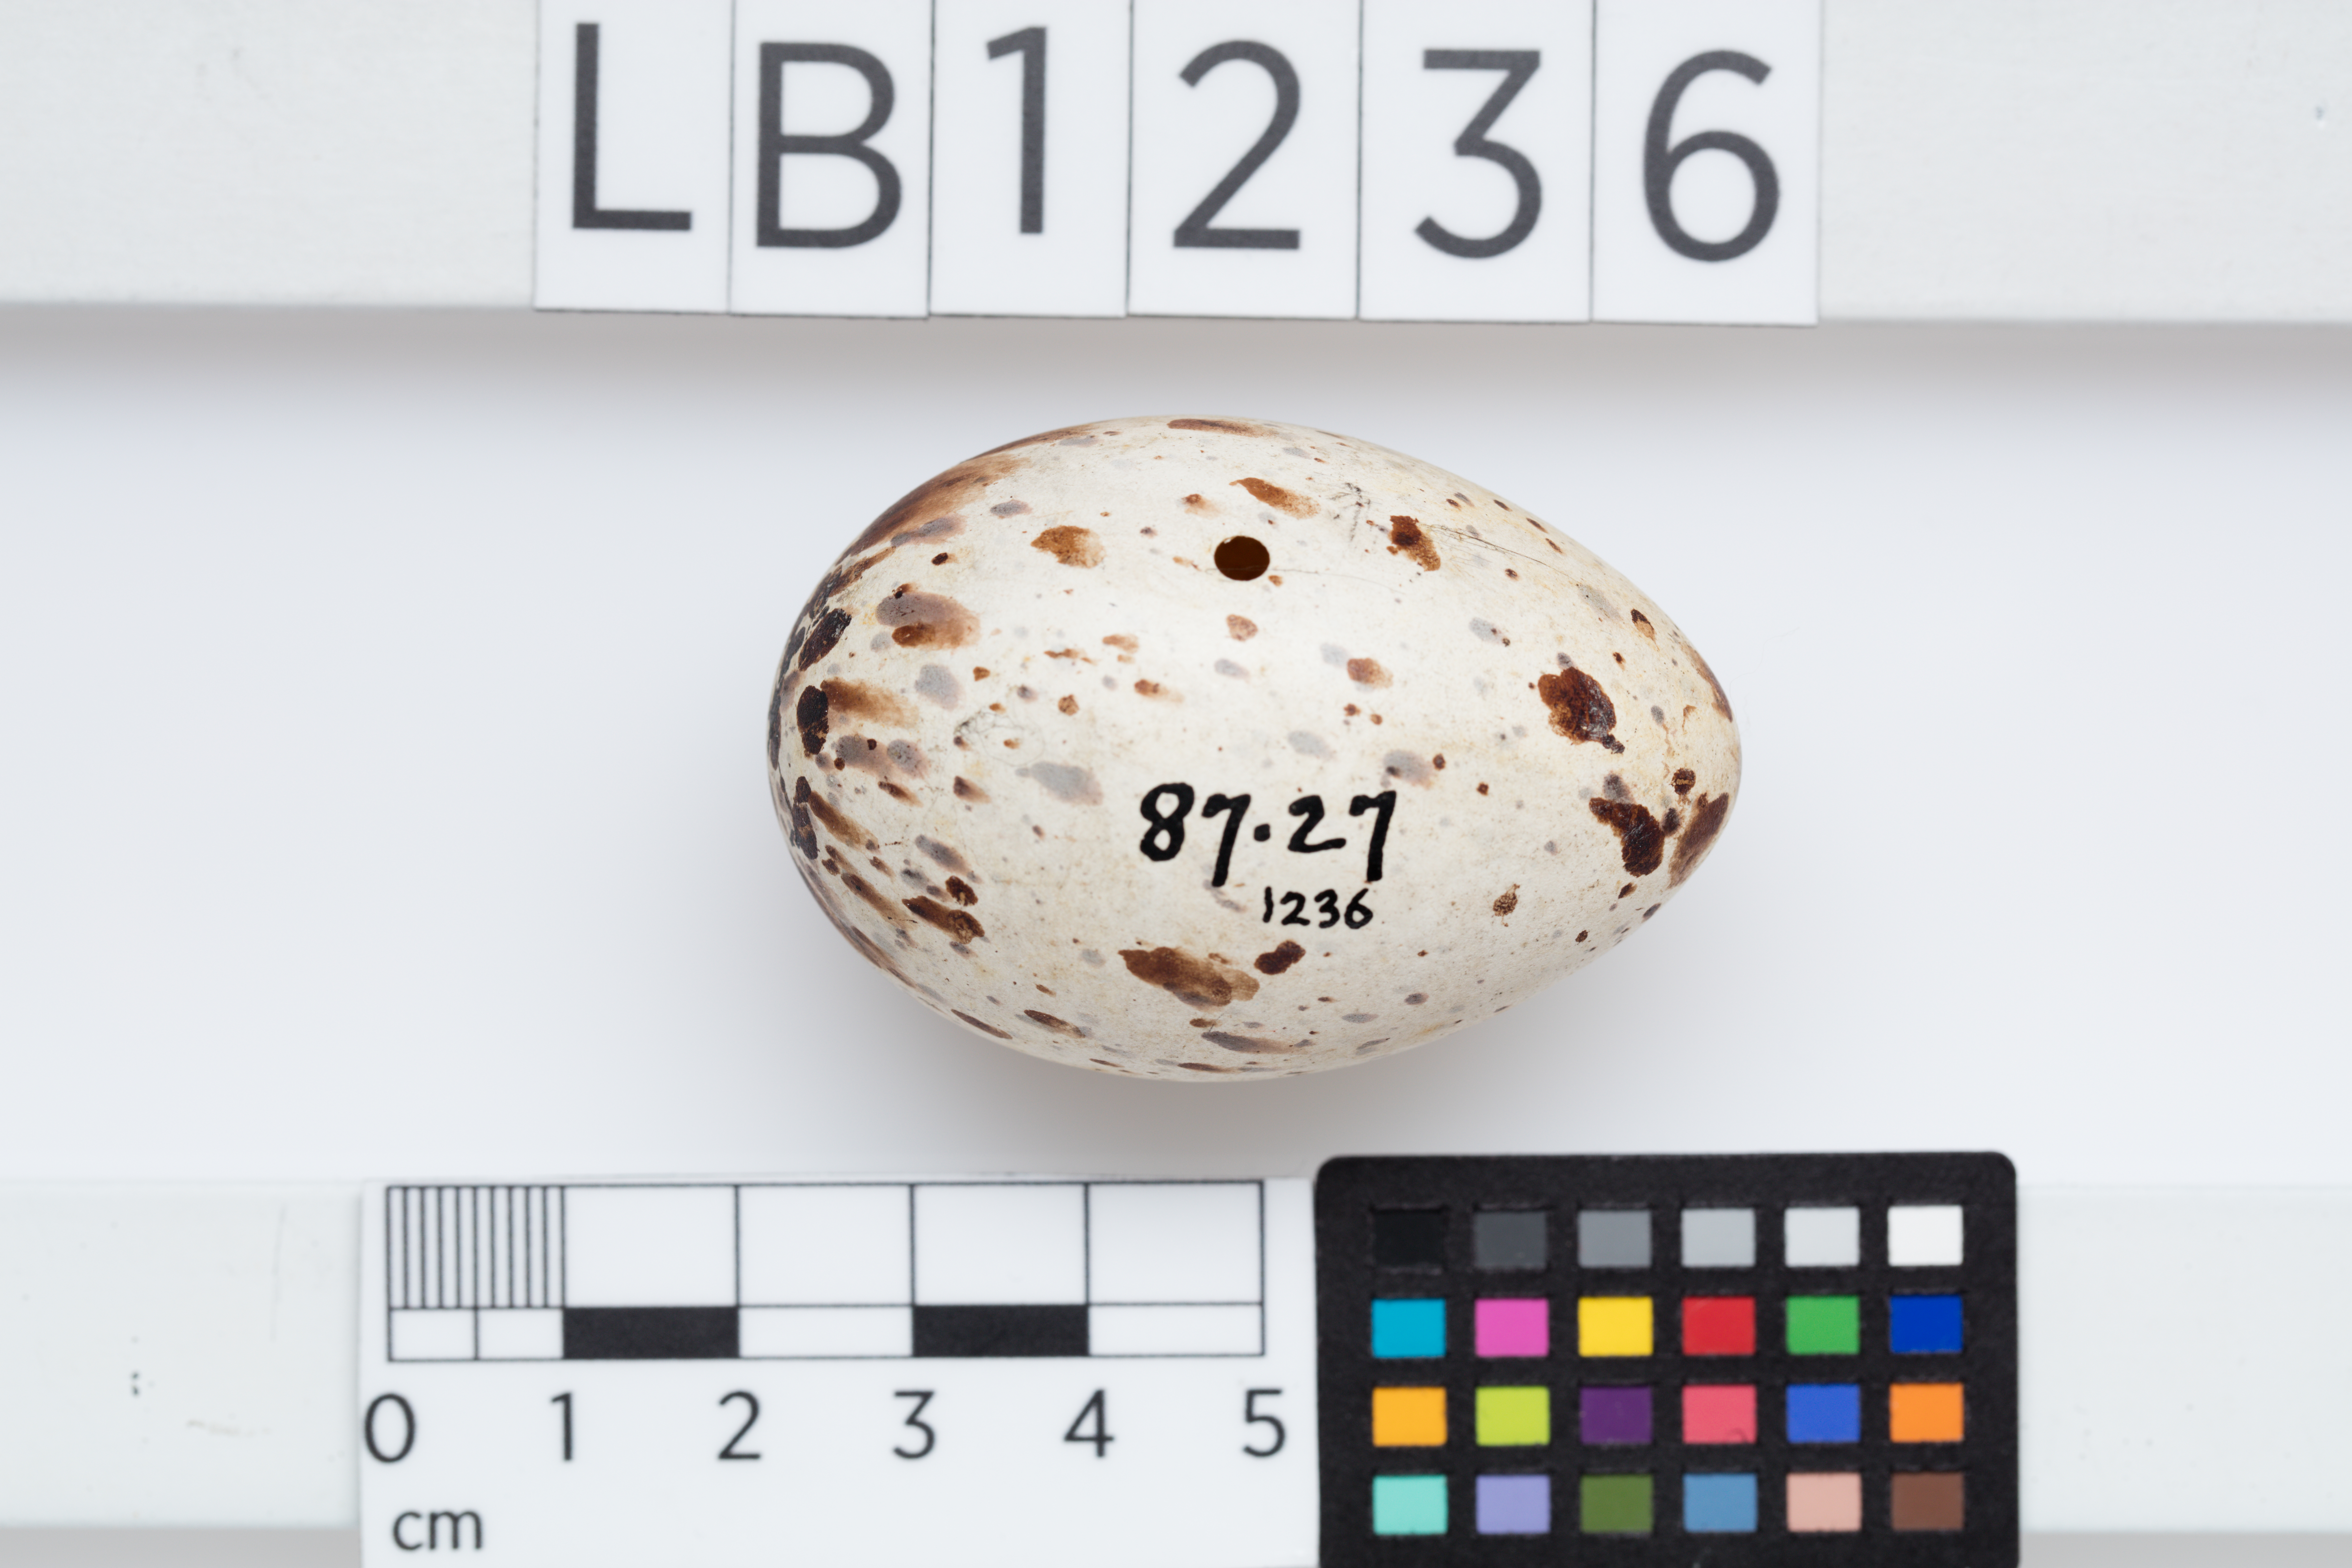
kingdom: Animalia
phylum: Chordata
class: Aves
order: Charadriiformes
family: Laridae
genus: Onychoprion
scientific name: Onychoprion fuscatus
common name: Sooty tern
